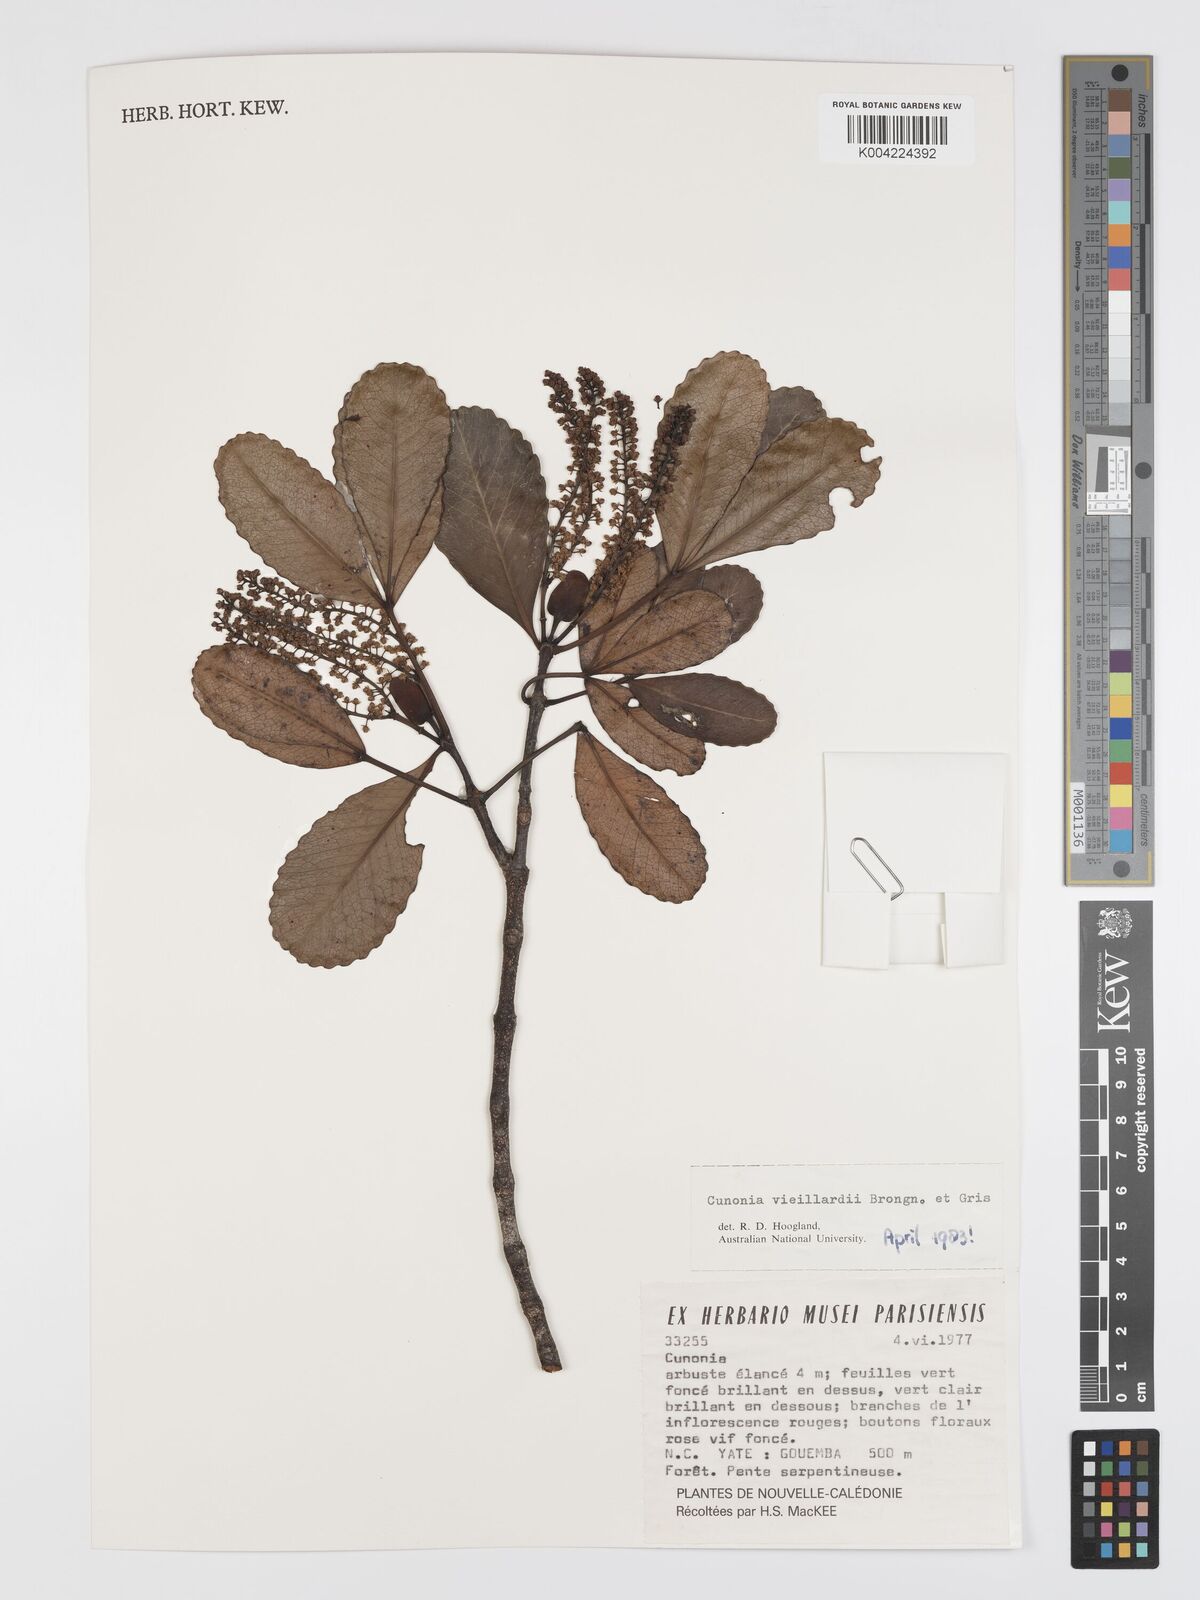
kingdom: Plantae
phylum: Tracheophyta
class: Magnoliopsida
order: Oxalidales
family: Cunoniaceae
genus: Cunonia
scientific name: Cunonia vieillardii
